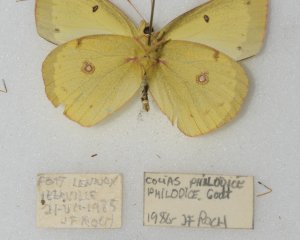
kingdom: Animalia
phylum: Arthropoda
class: Insecta
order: Lepidoptera
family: Pieridae
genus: Colias
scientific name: Colias philodice
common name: Clouded Sulphur
